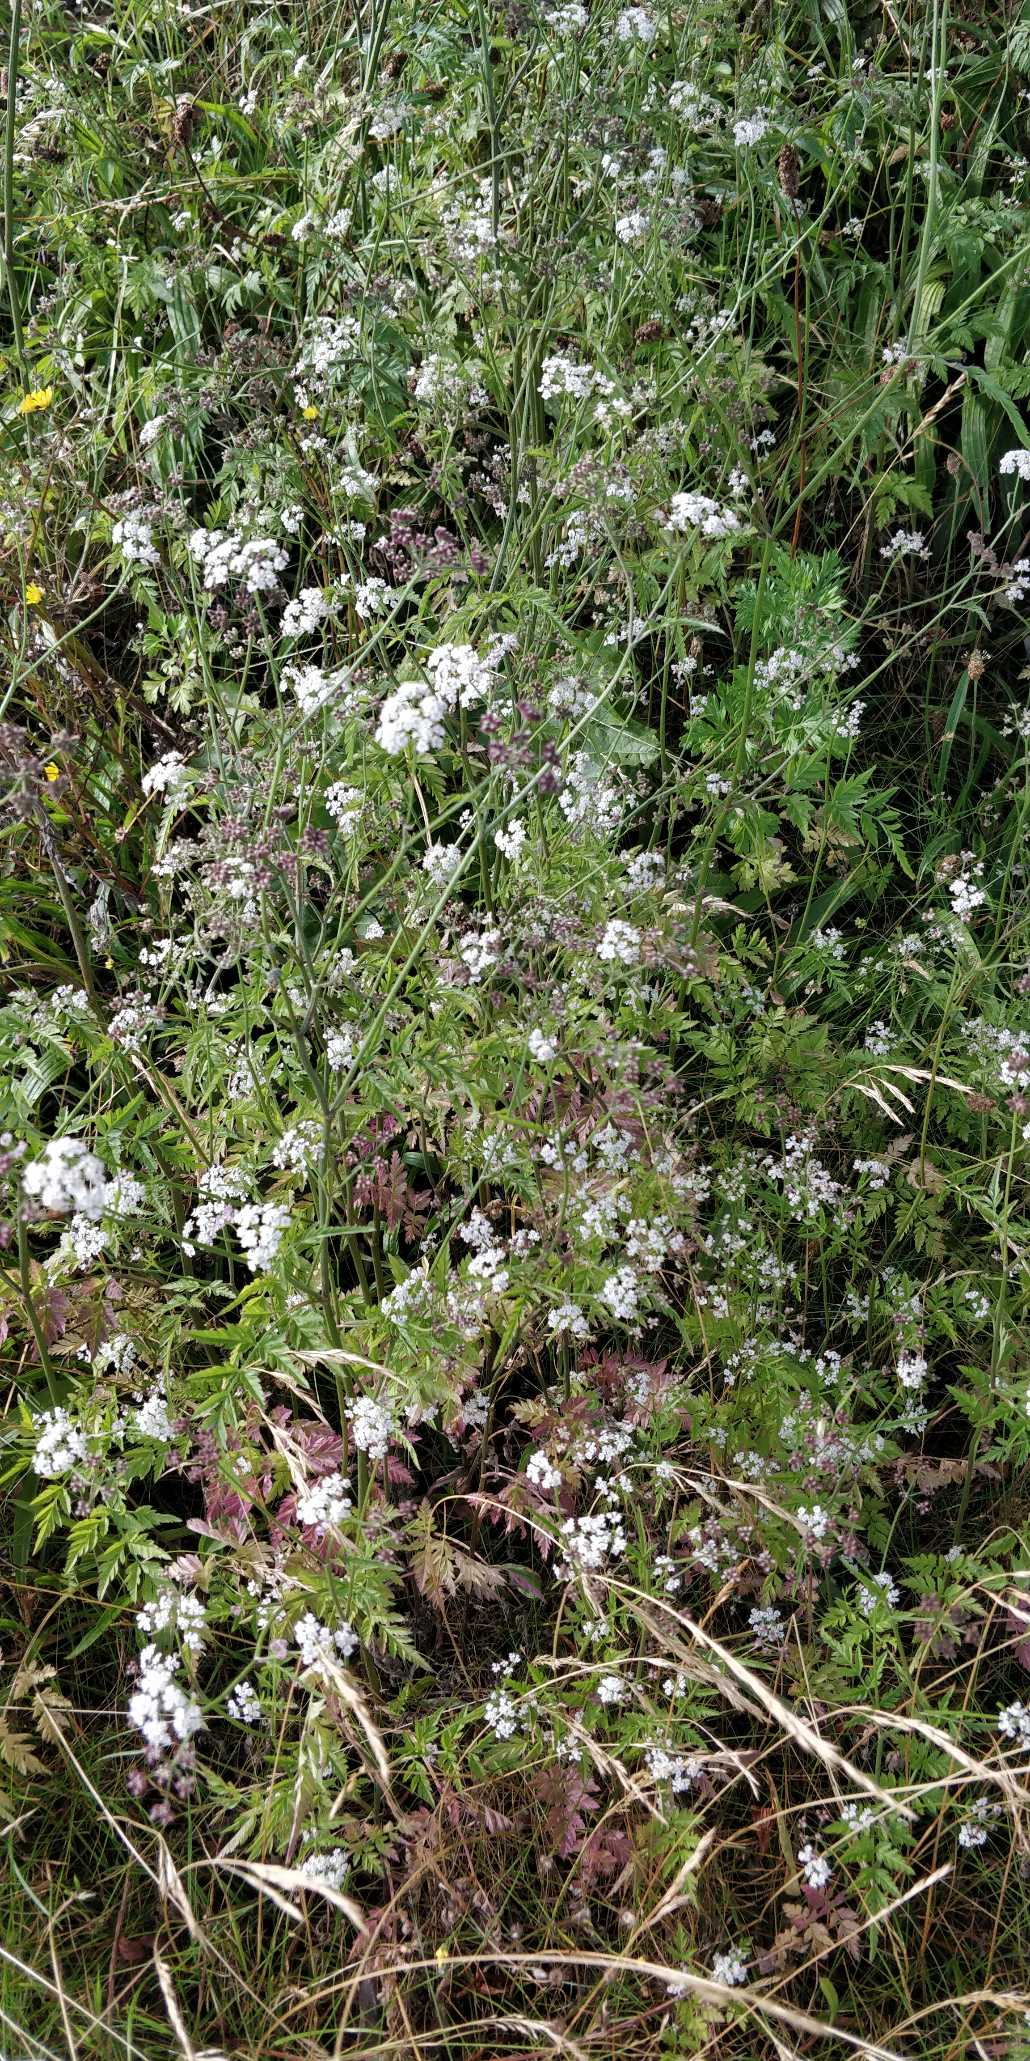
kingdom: Plantae
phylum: Tracheophyta
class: Magnoliopsida
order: Apiales
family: Apiaceae
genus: Torilis
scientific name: Torilis japonica
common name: Hvas randfrø
